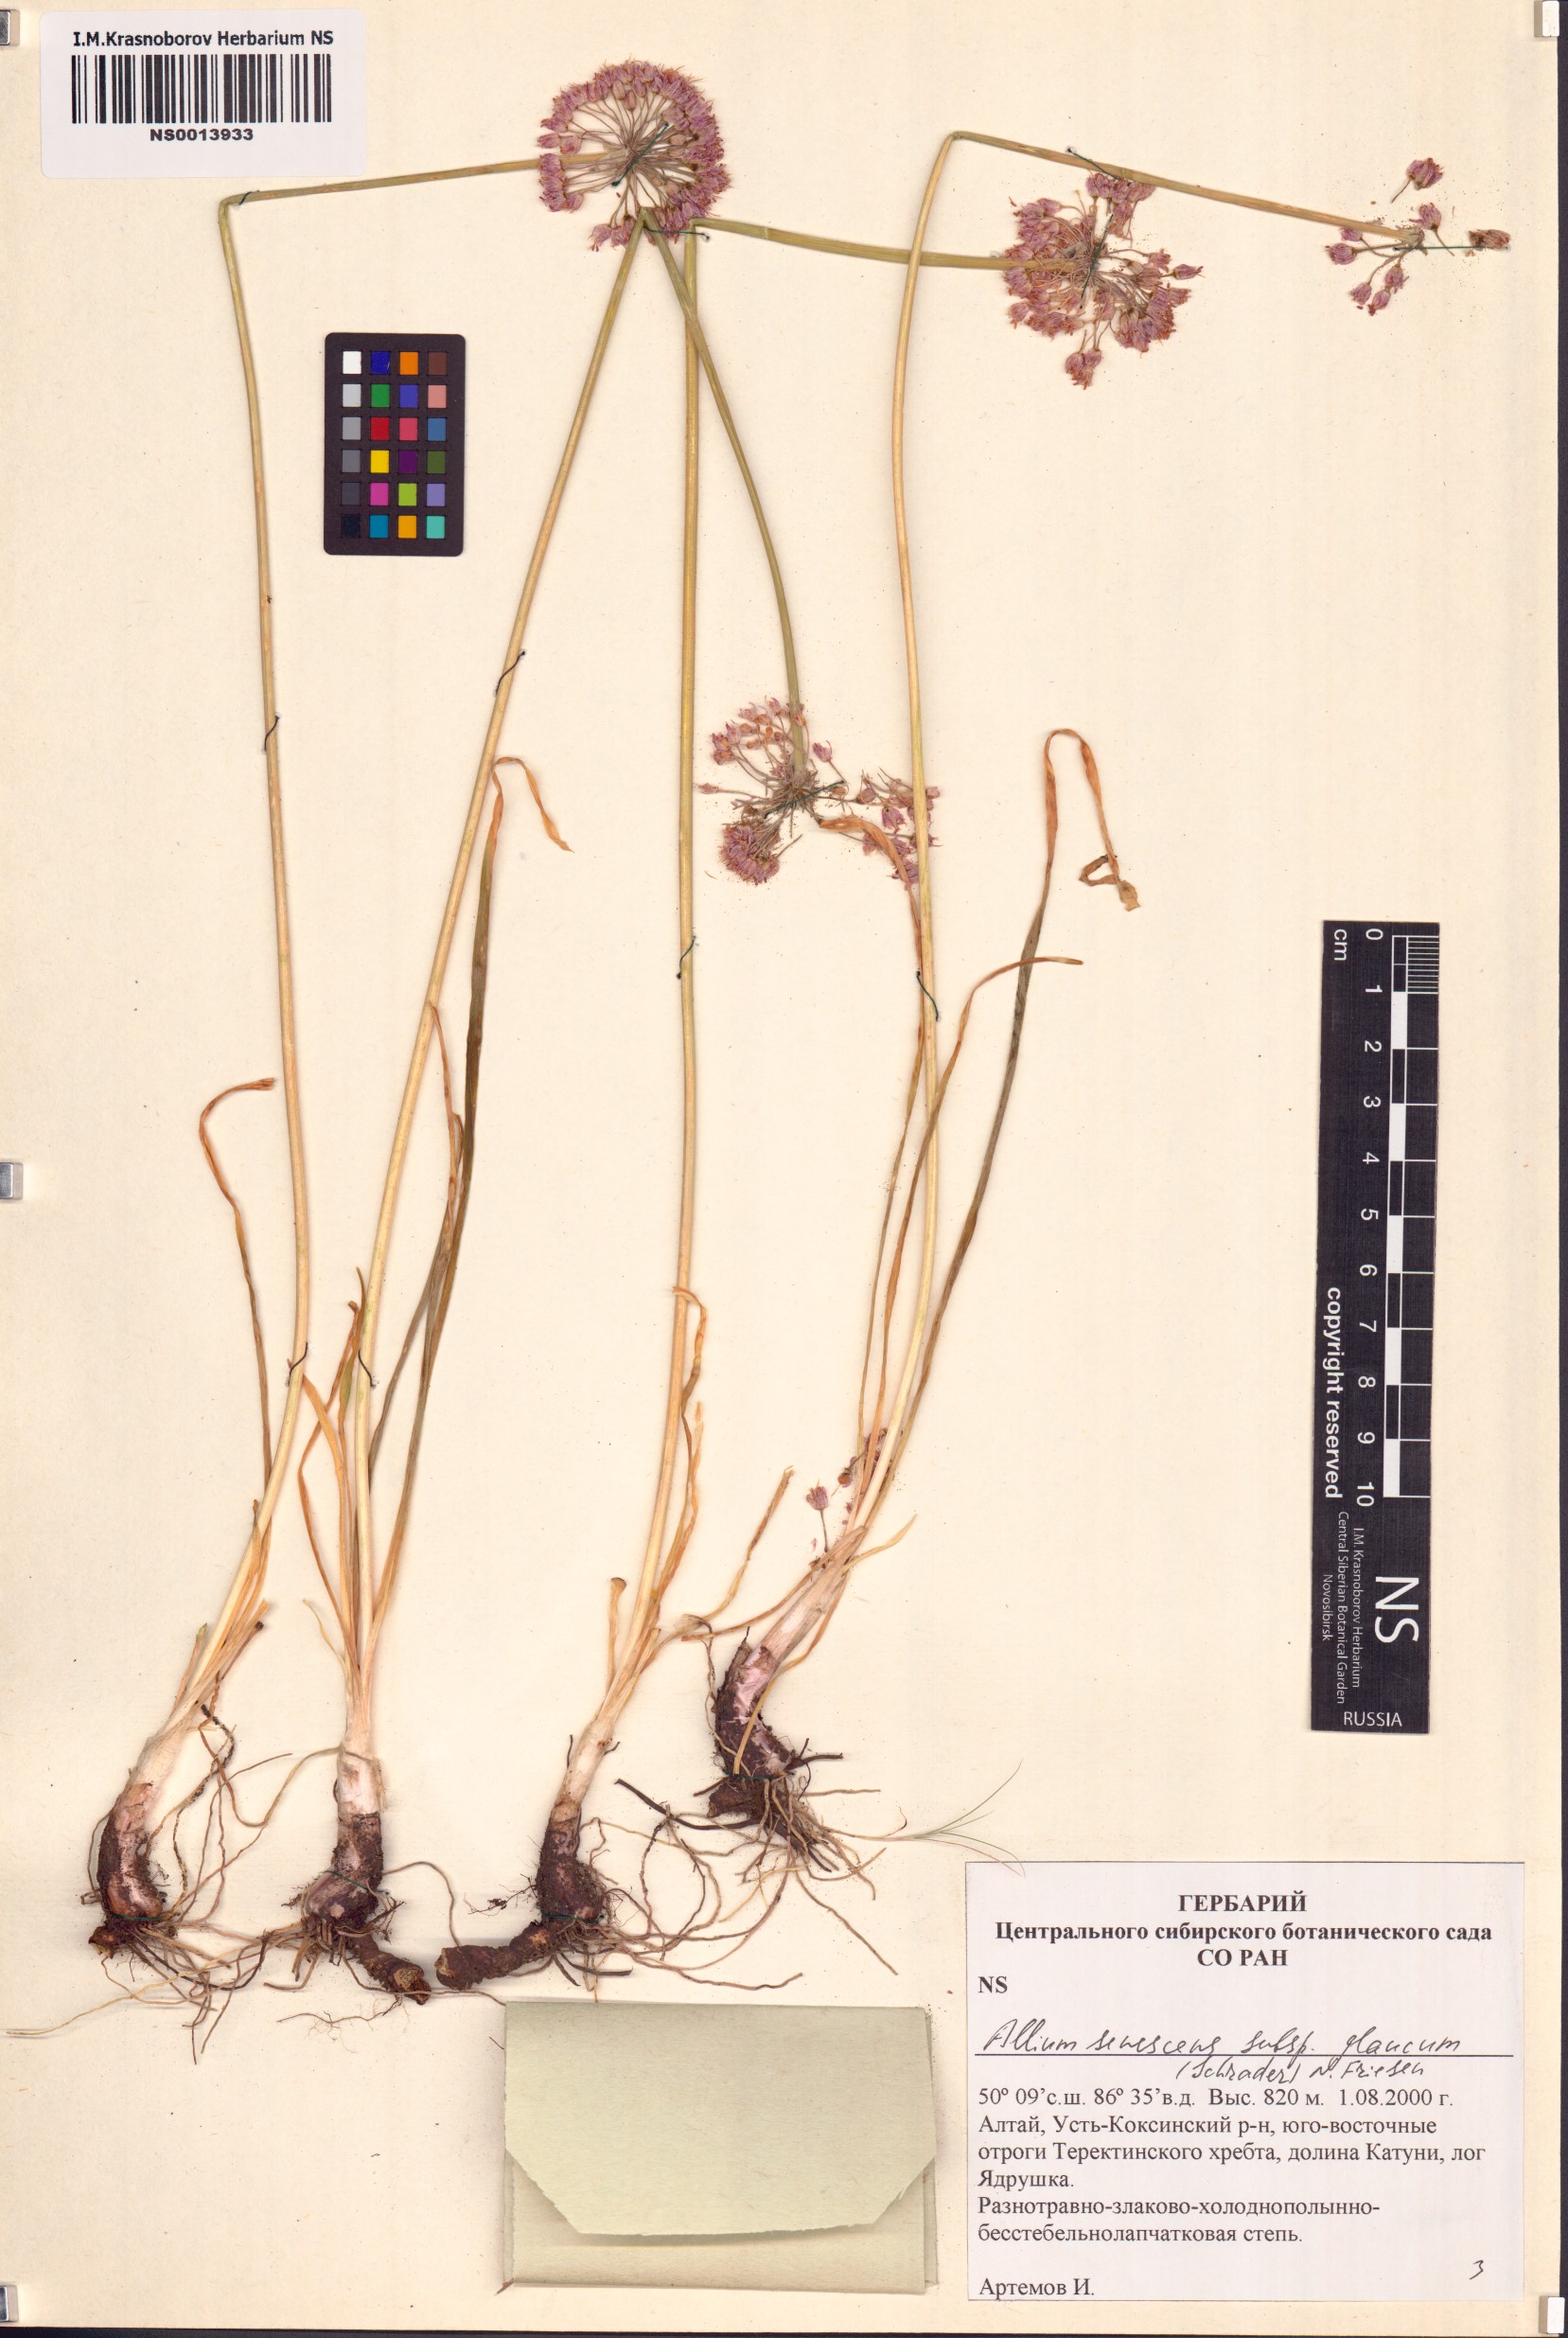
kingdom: Plantae
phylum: Tracheophyta
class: Liliopsida
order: Asparagales
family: Amaryllidaceae
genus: Allium
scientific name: Allium senescens
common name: German garlic
